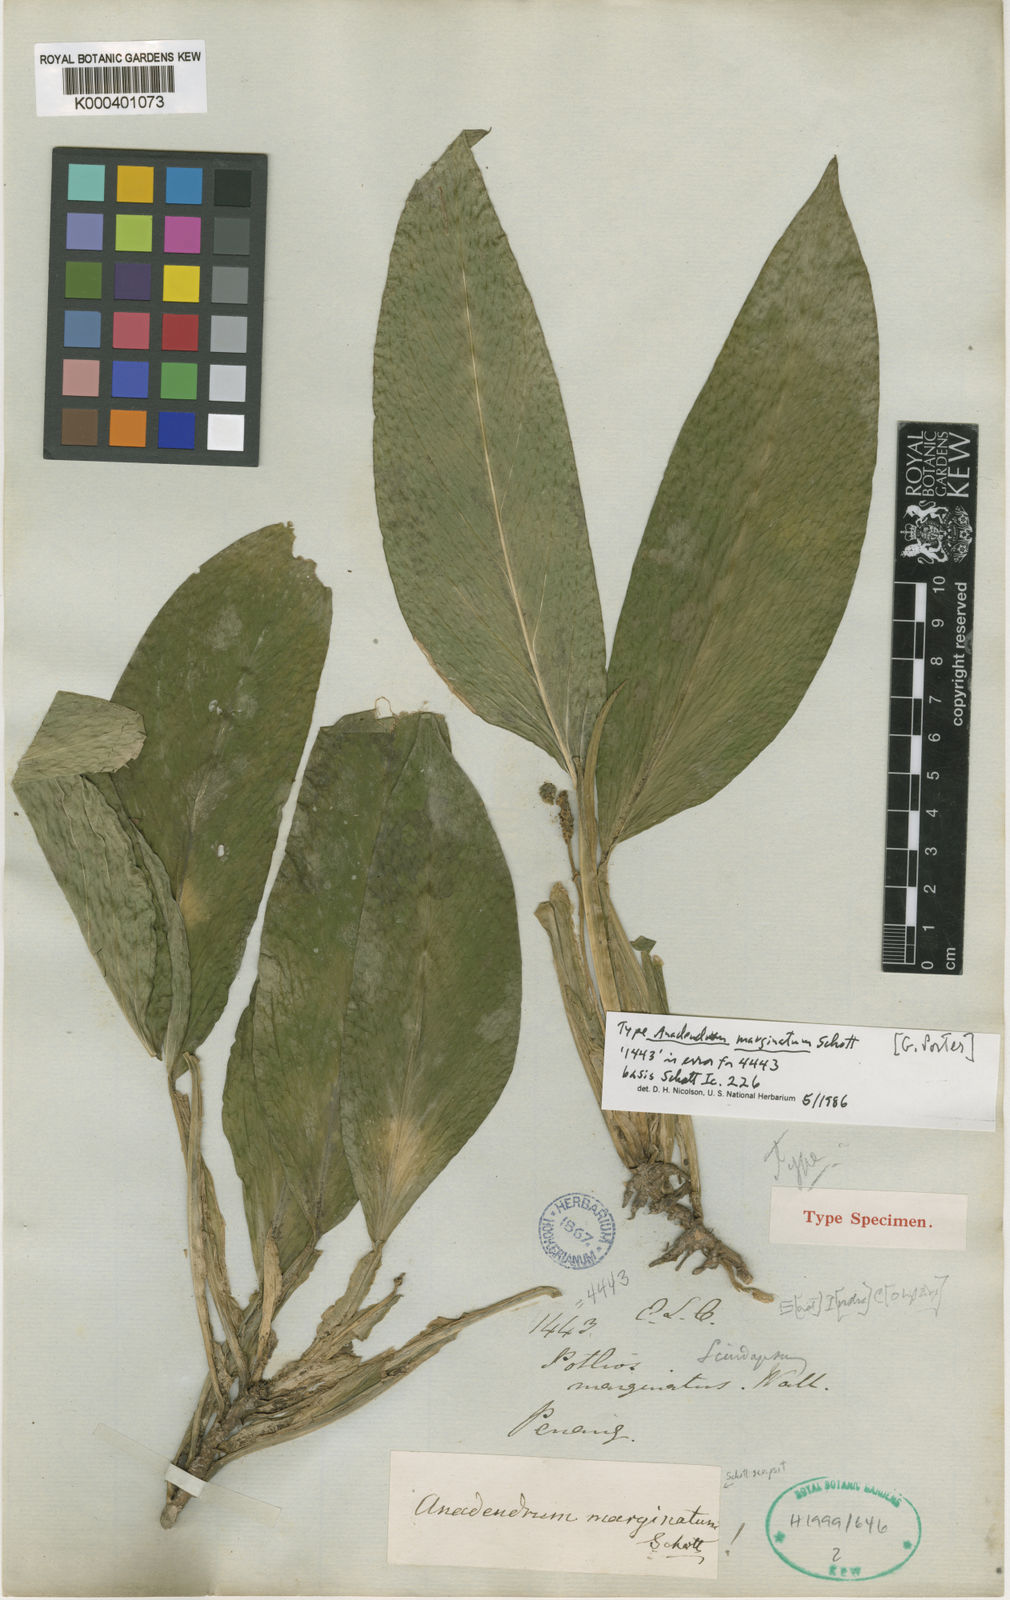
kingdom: Plantae
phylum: Tracheophyta
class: Liliopsida
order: Alismatales
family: Araceae
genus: Anadendrum
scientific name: Anadendrum marginatum
